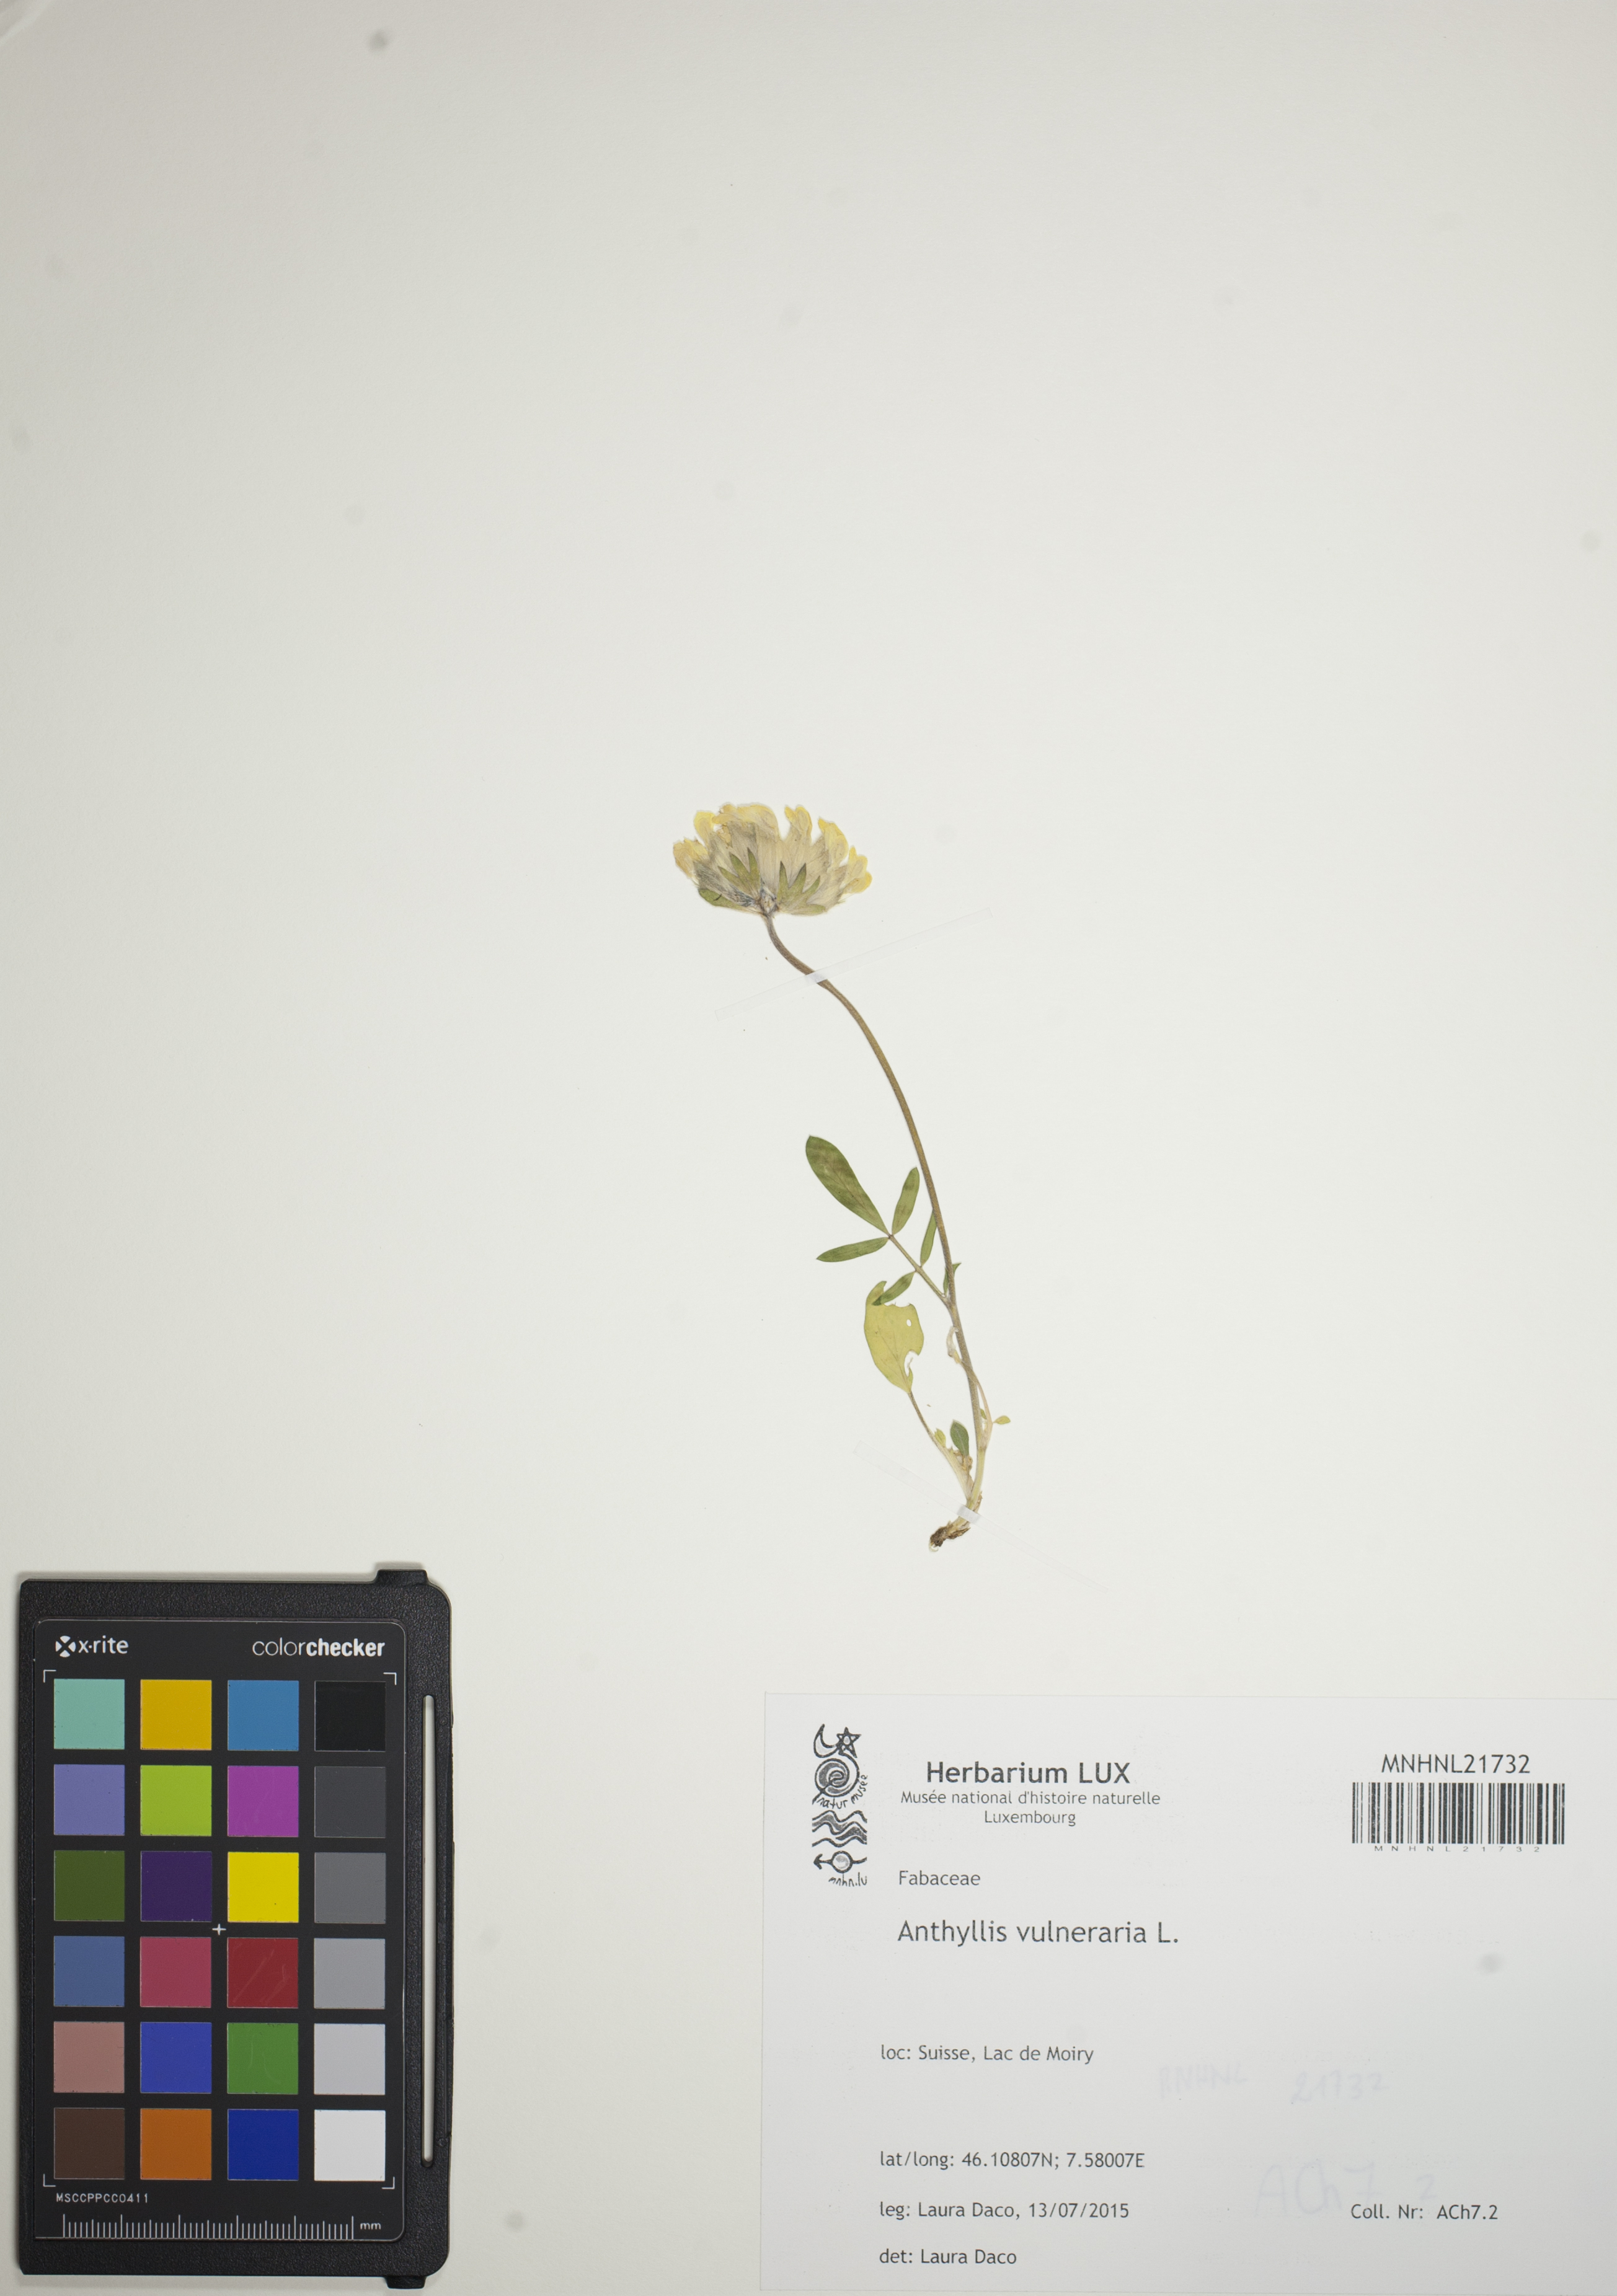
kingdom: Plantae
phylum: Tracheophyta
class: Magnoliopsida
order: Fabales
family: Fabaceae
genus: Anthyllis
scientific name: Anthyllis vulneraria
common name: Kidney vetch
